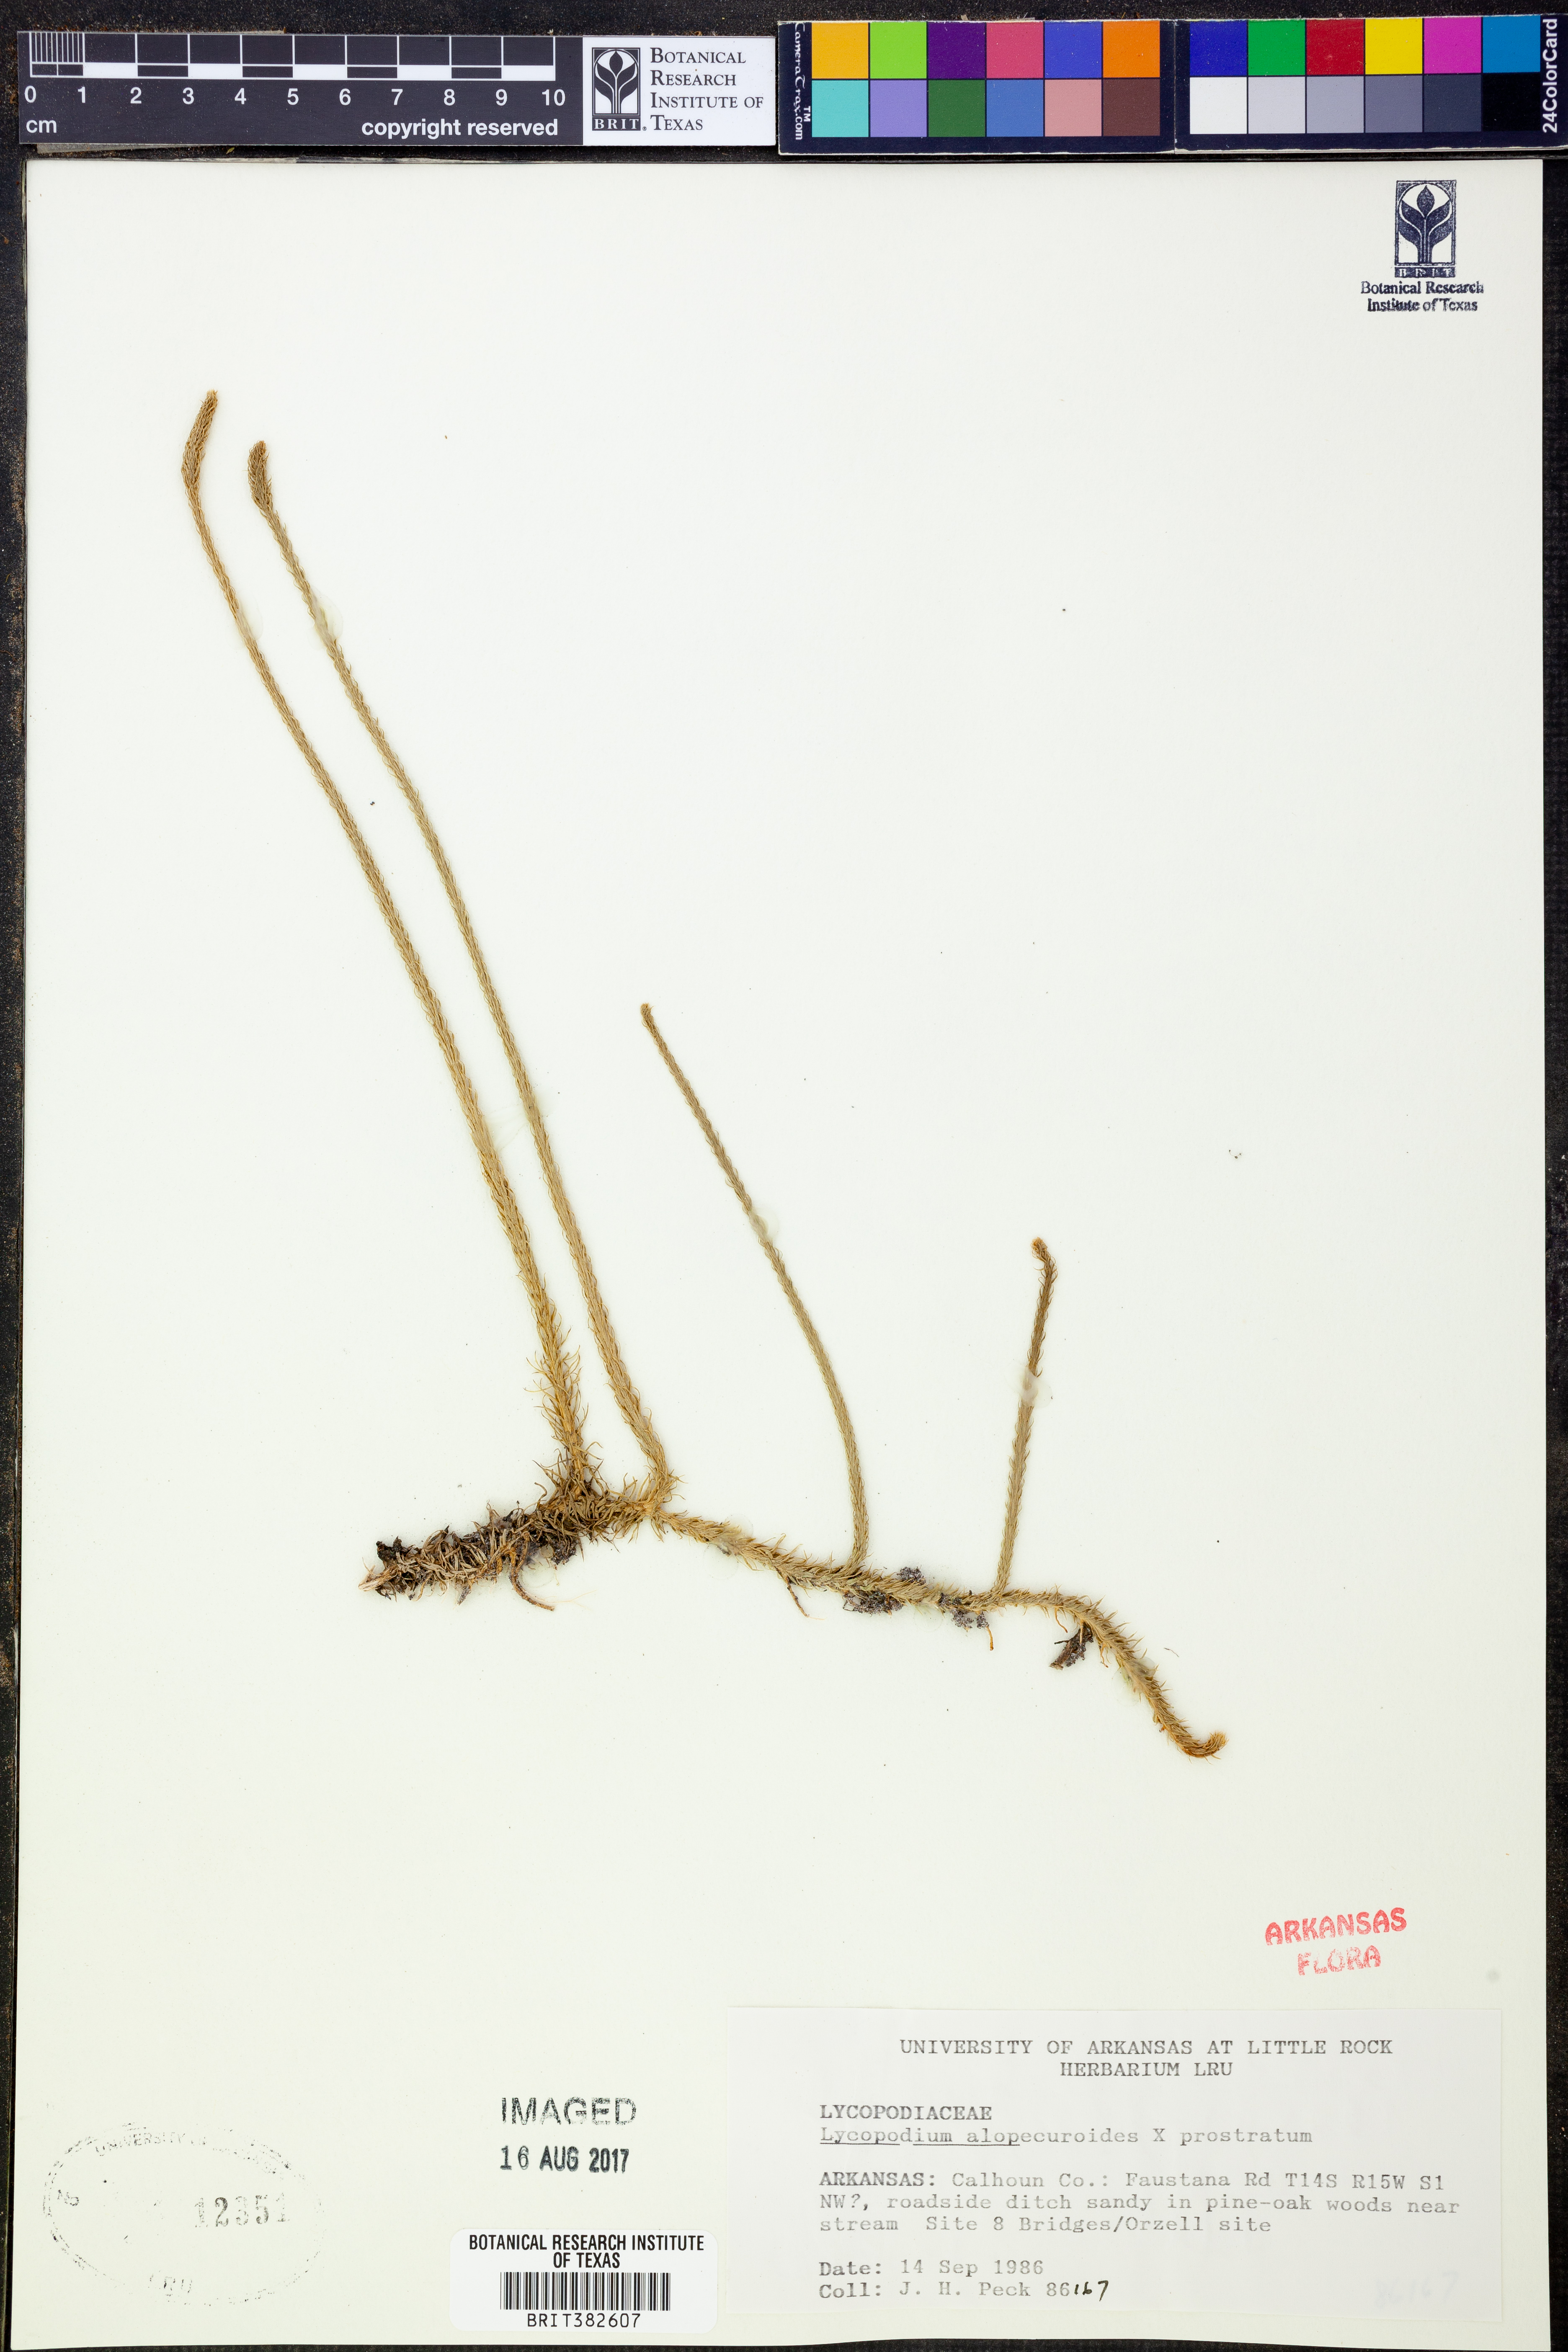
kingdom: Plantae
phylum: Tracheophyta
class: Lycopodiopsida
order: Lycopodiales
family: Lycopodiaceae
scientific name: Lycopodiaceae
